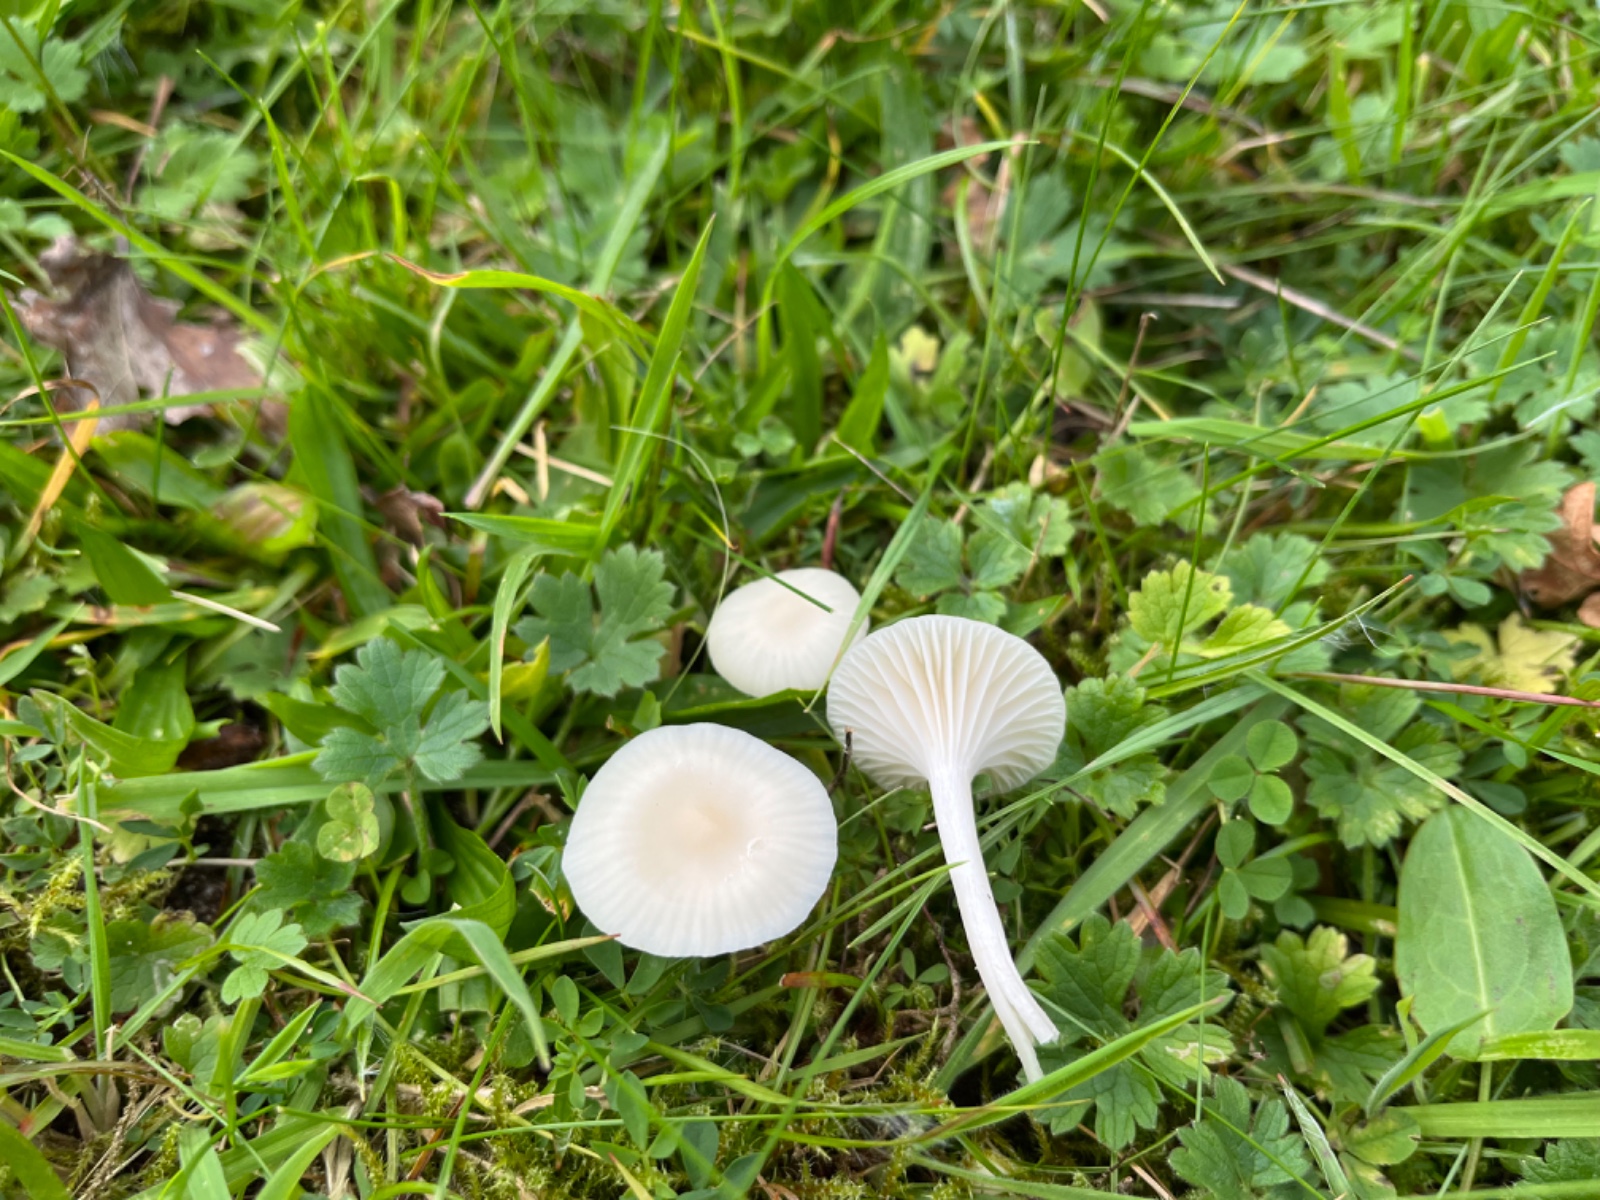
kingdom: Fungi
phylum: Basidiomycota
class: Agaricomycetes
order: Agaricales
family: Hygrophoraceae
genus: Cuphophyllus
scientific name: Cuphophyllus virgineus
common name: snehvid vokshat
